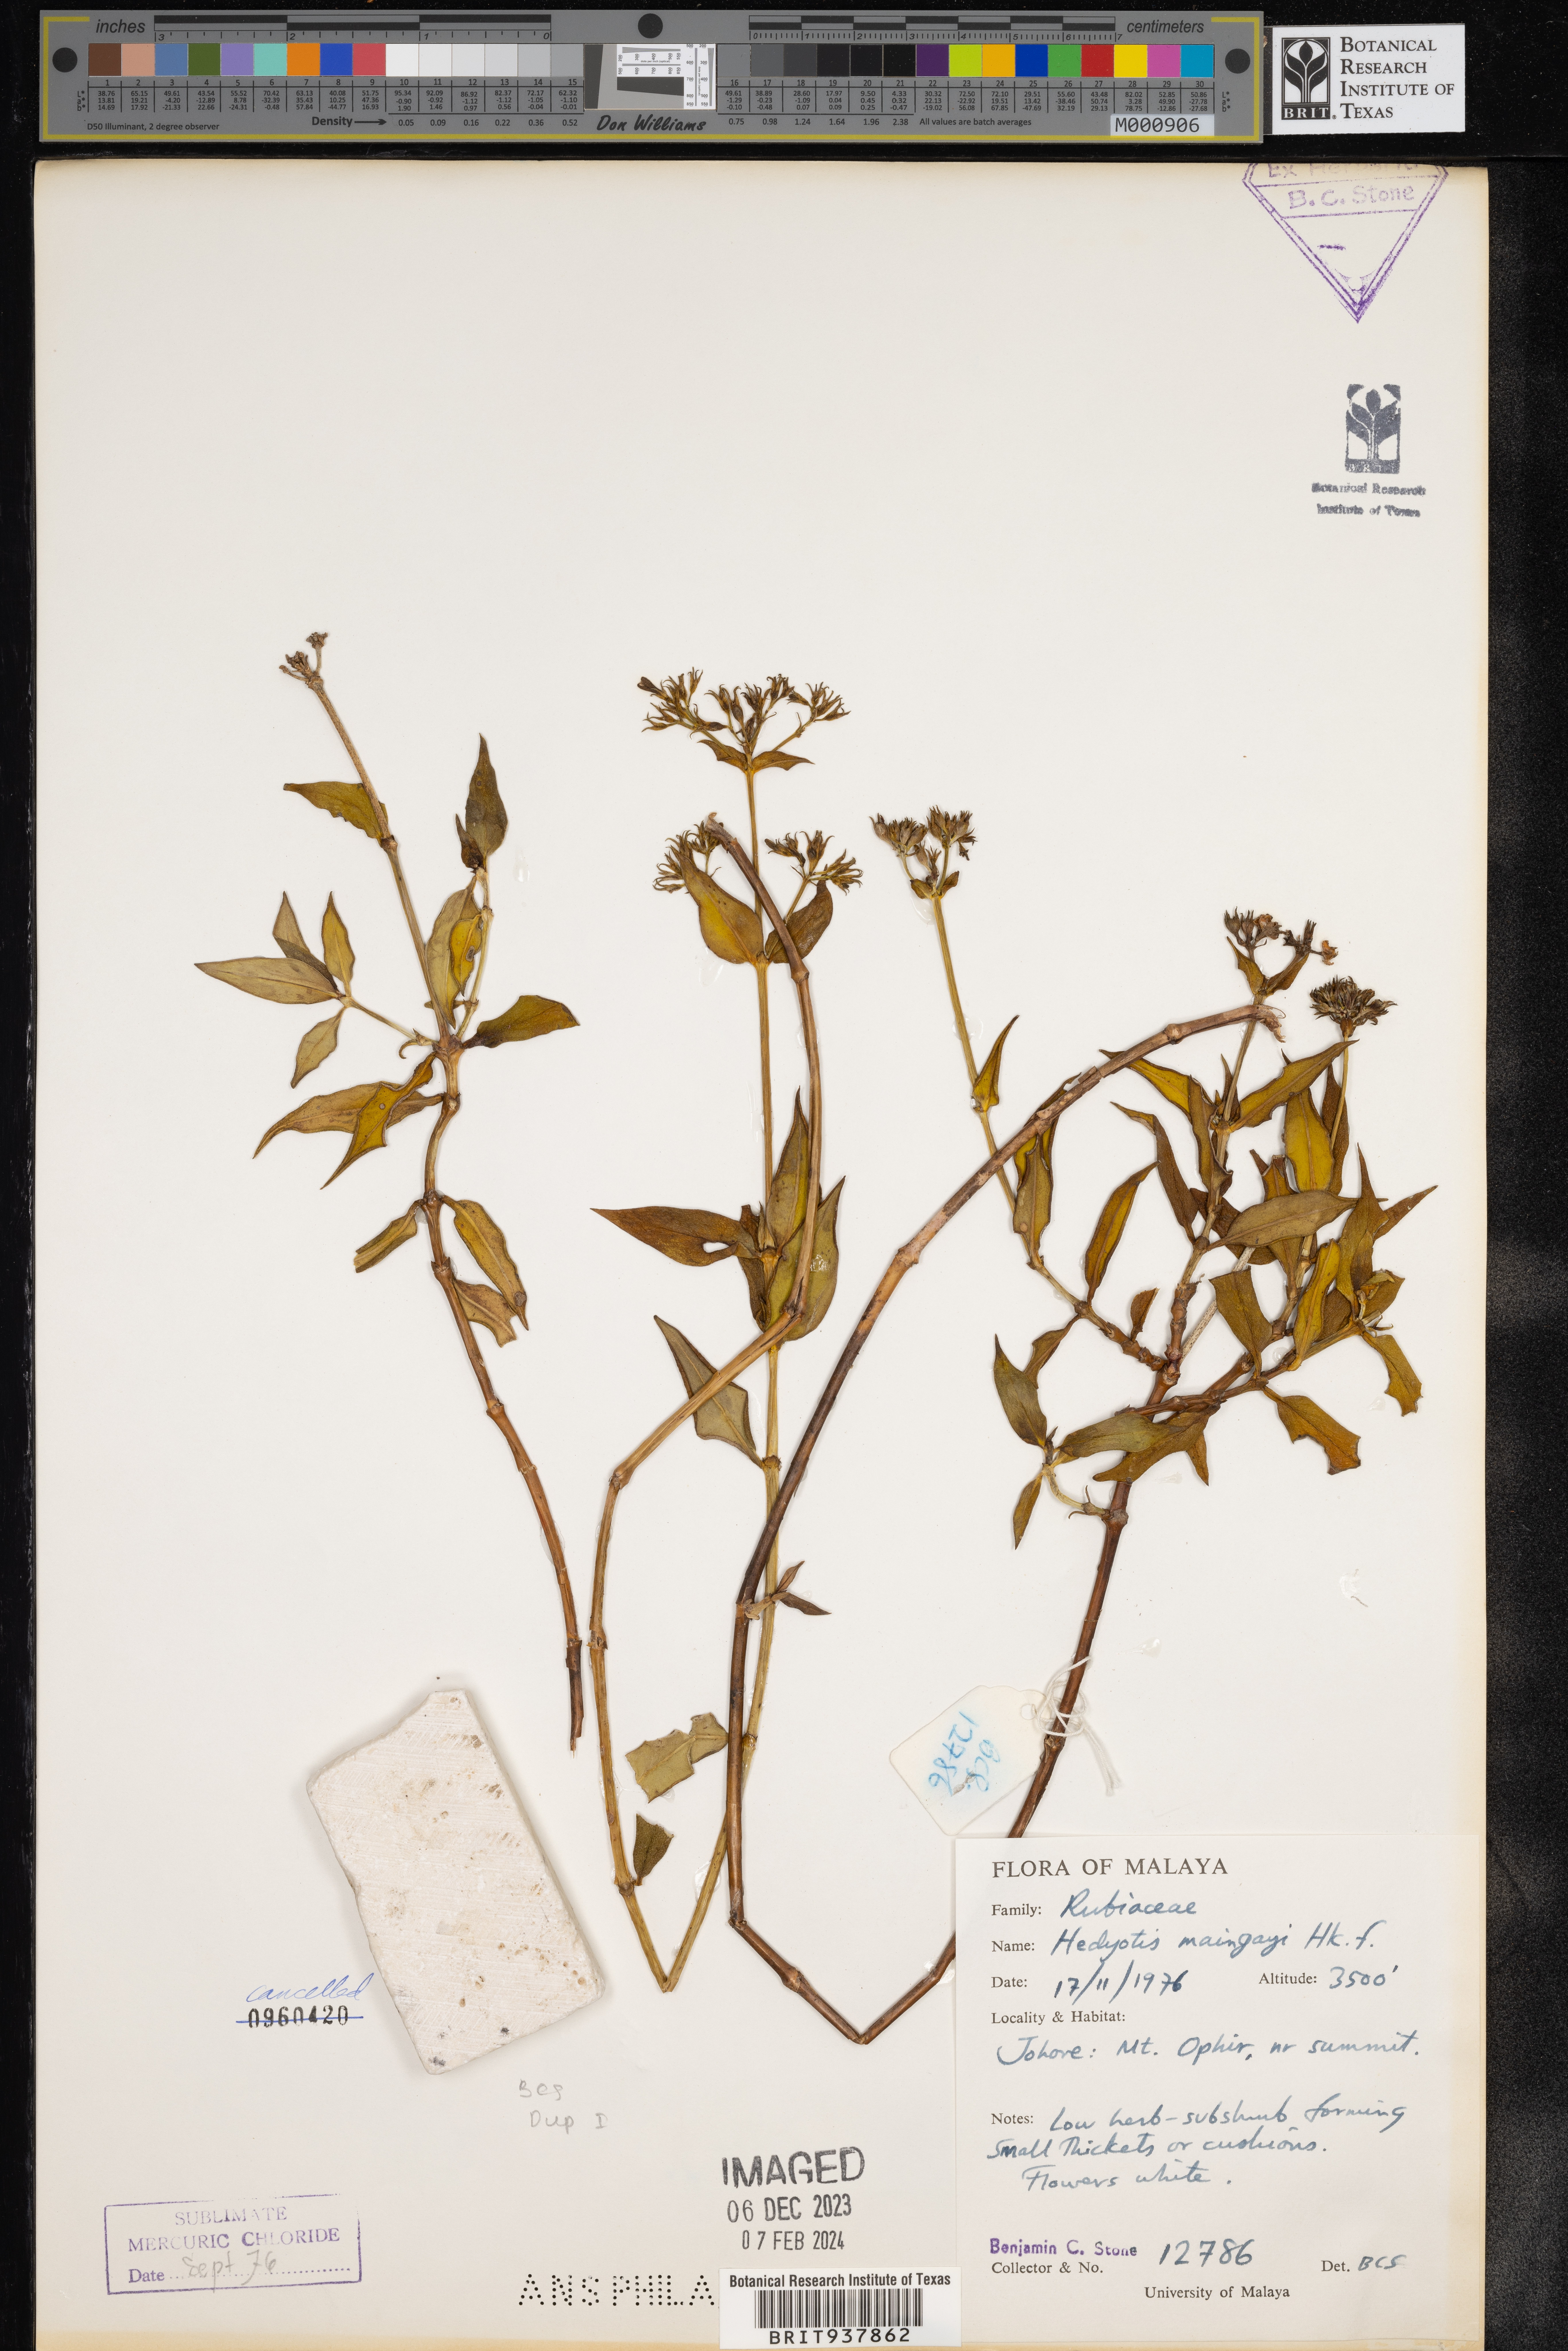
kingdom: Plantae
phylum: Tracheophyta
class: Magnoliopsida
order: Gentianales
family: Rubiaceae
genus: Hedyotis
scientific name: Hedyotis
